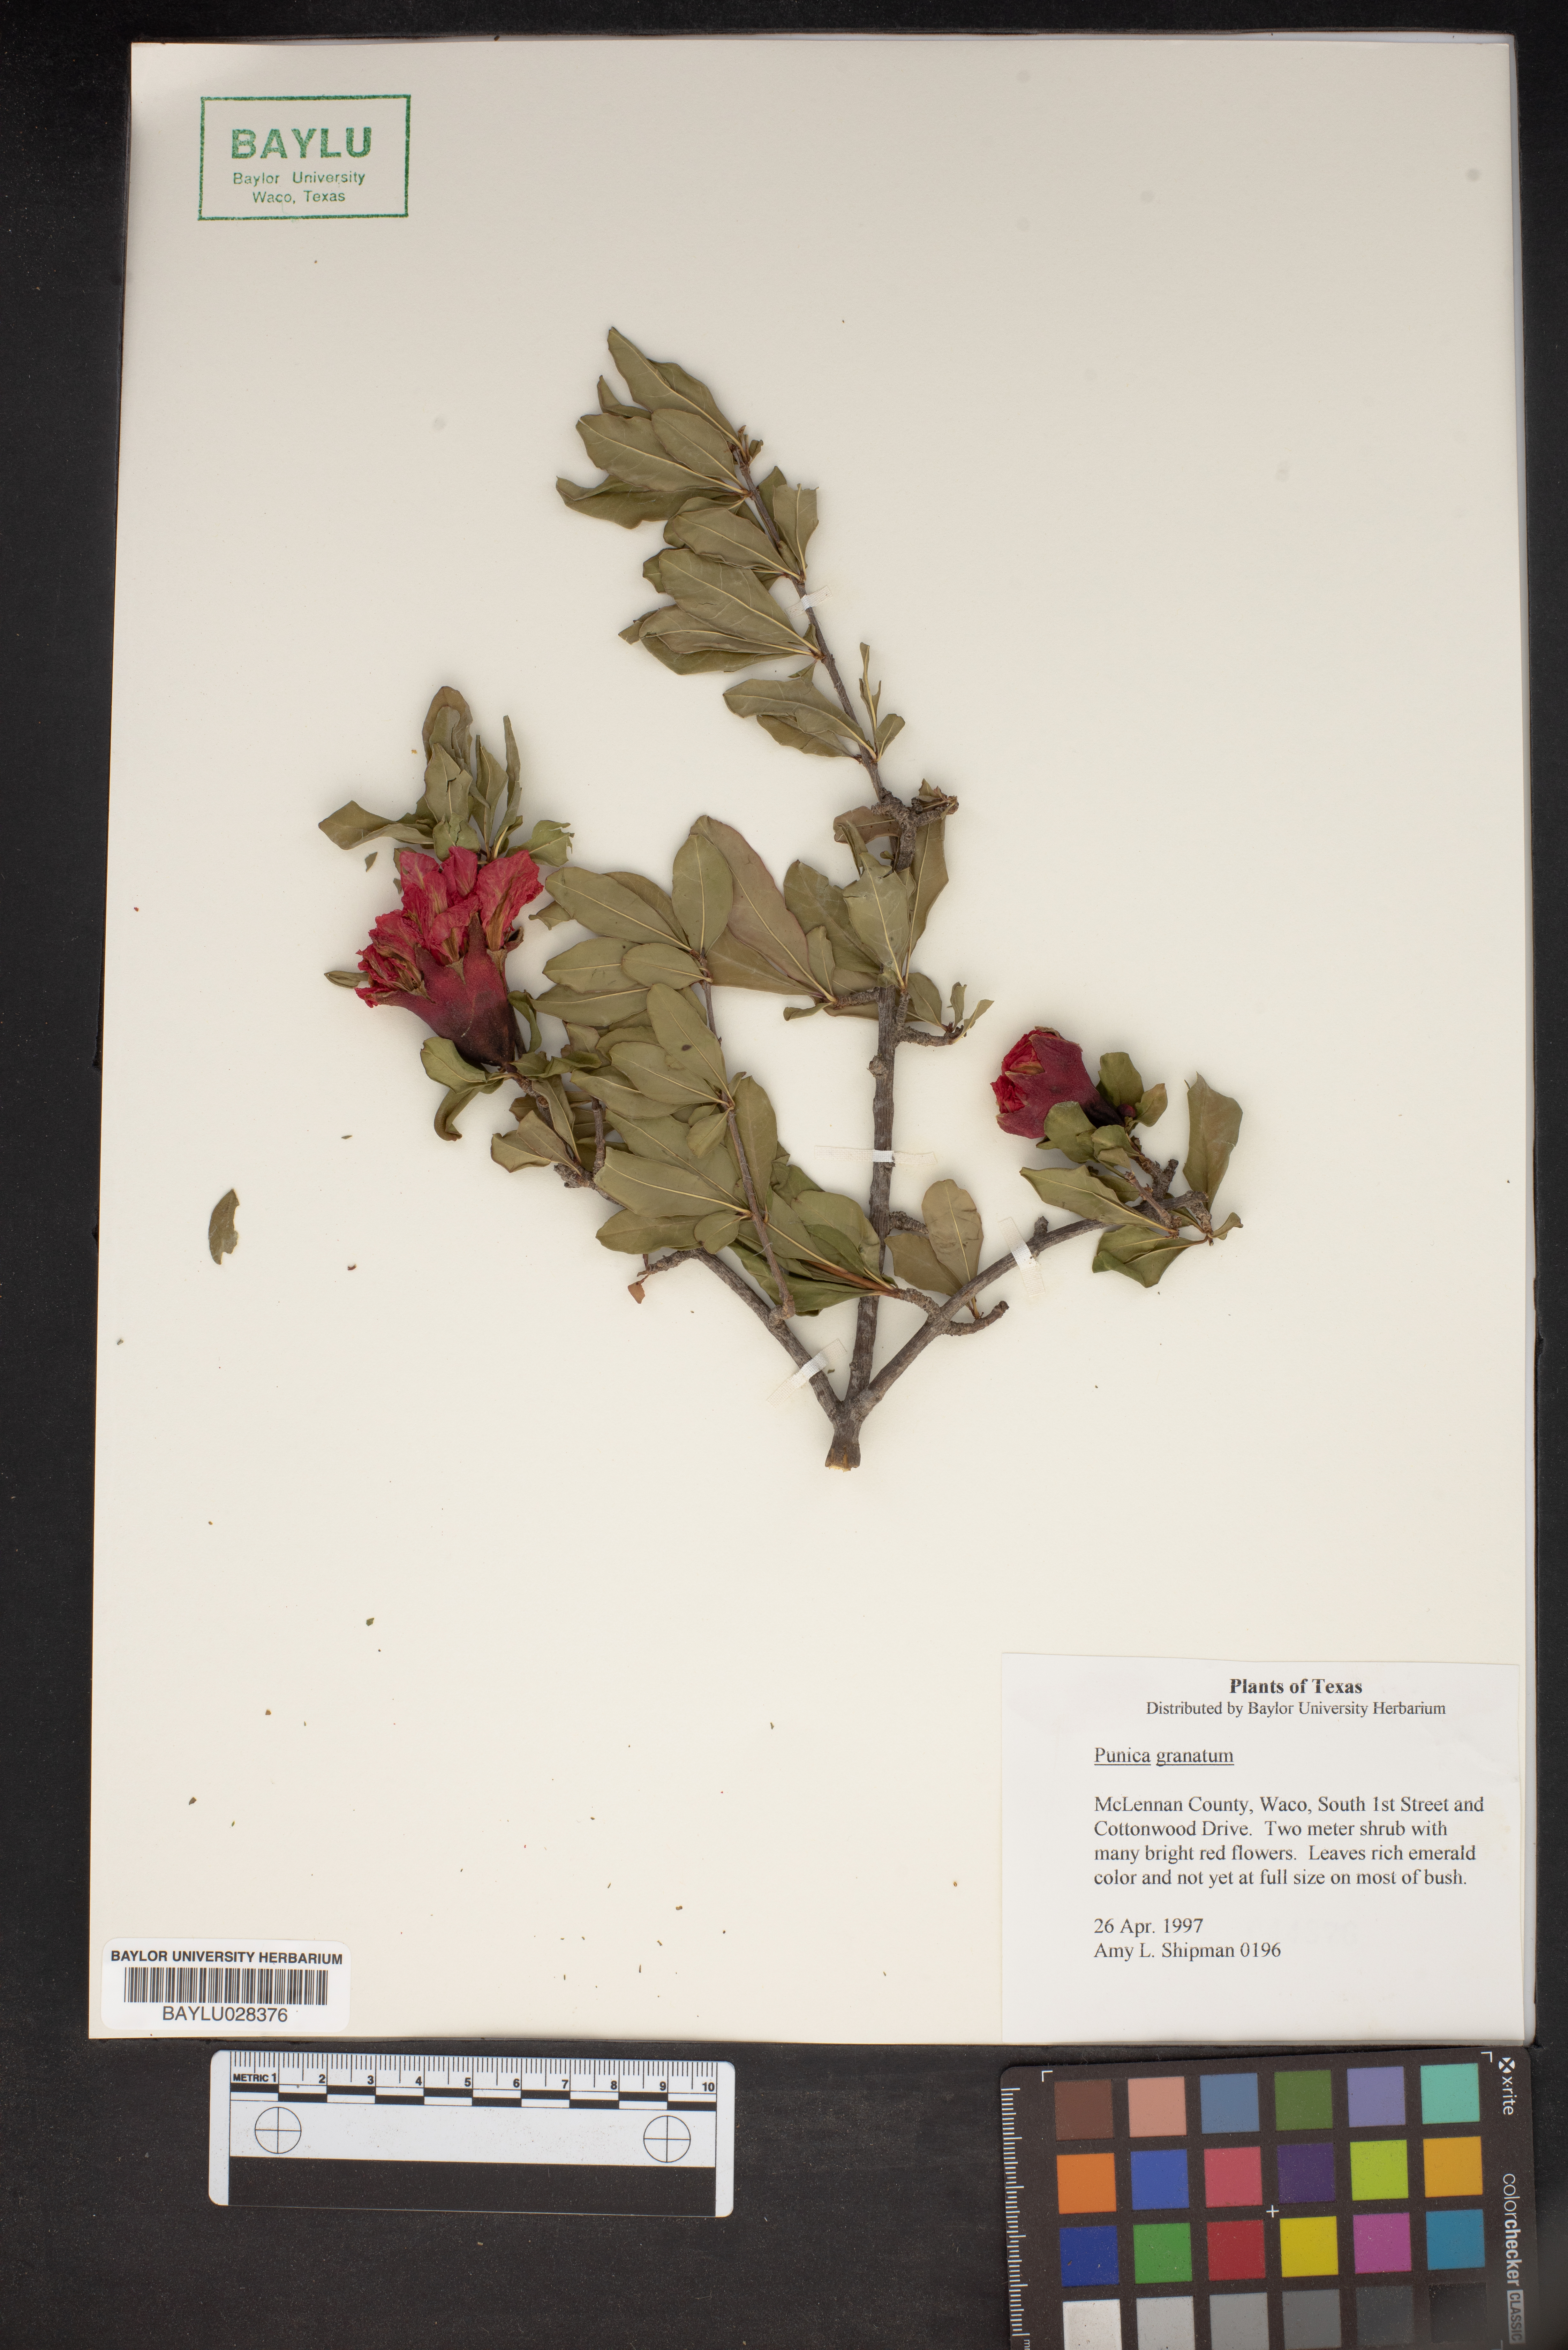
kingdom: Plantae
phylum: Tracheophyta
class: Magnoliopsida
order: Myrtales
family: Lythraceae
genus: Punica
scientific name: Punica granatum
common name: Pomegranate
